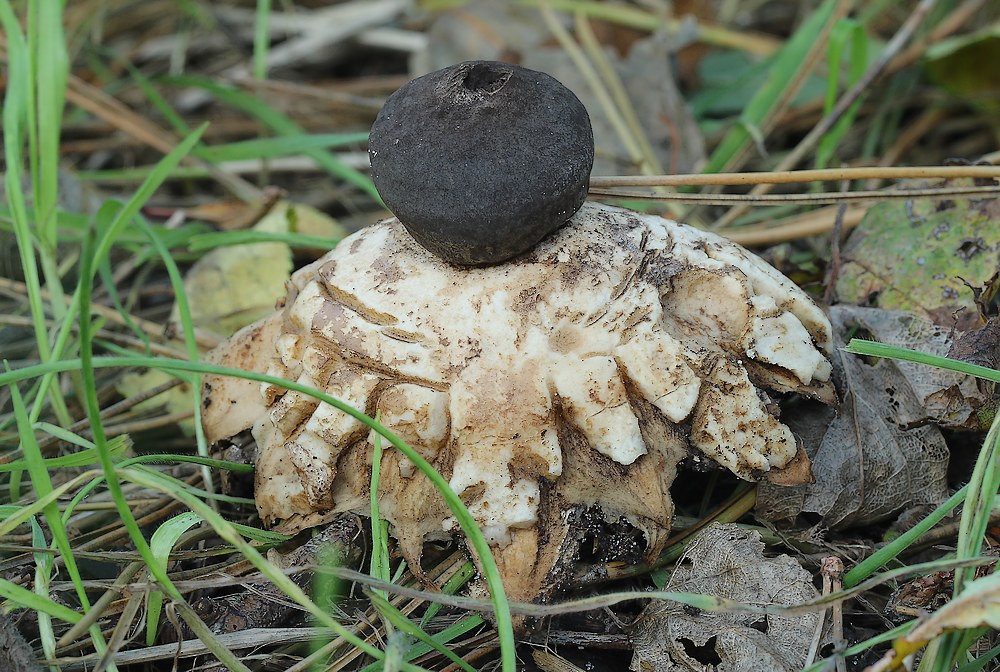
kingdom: Fungi
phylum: Basidiomycota
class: Agaricomycetes
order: Geastrales
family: Geastraceae
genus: Geastrum
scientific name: Geastrum coronatum
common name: mørk stjernebold
